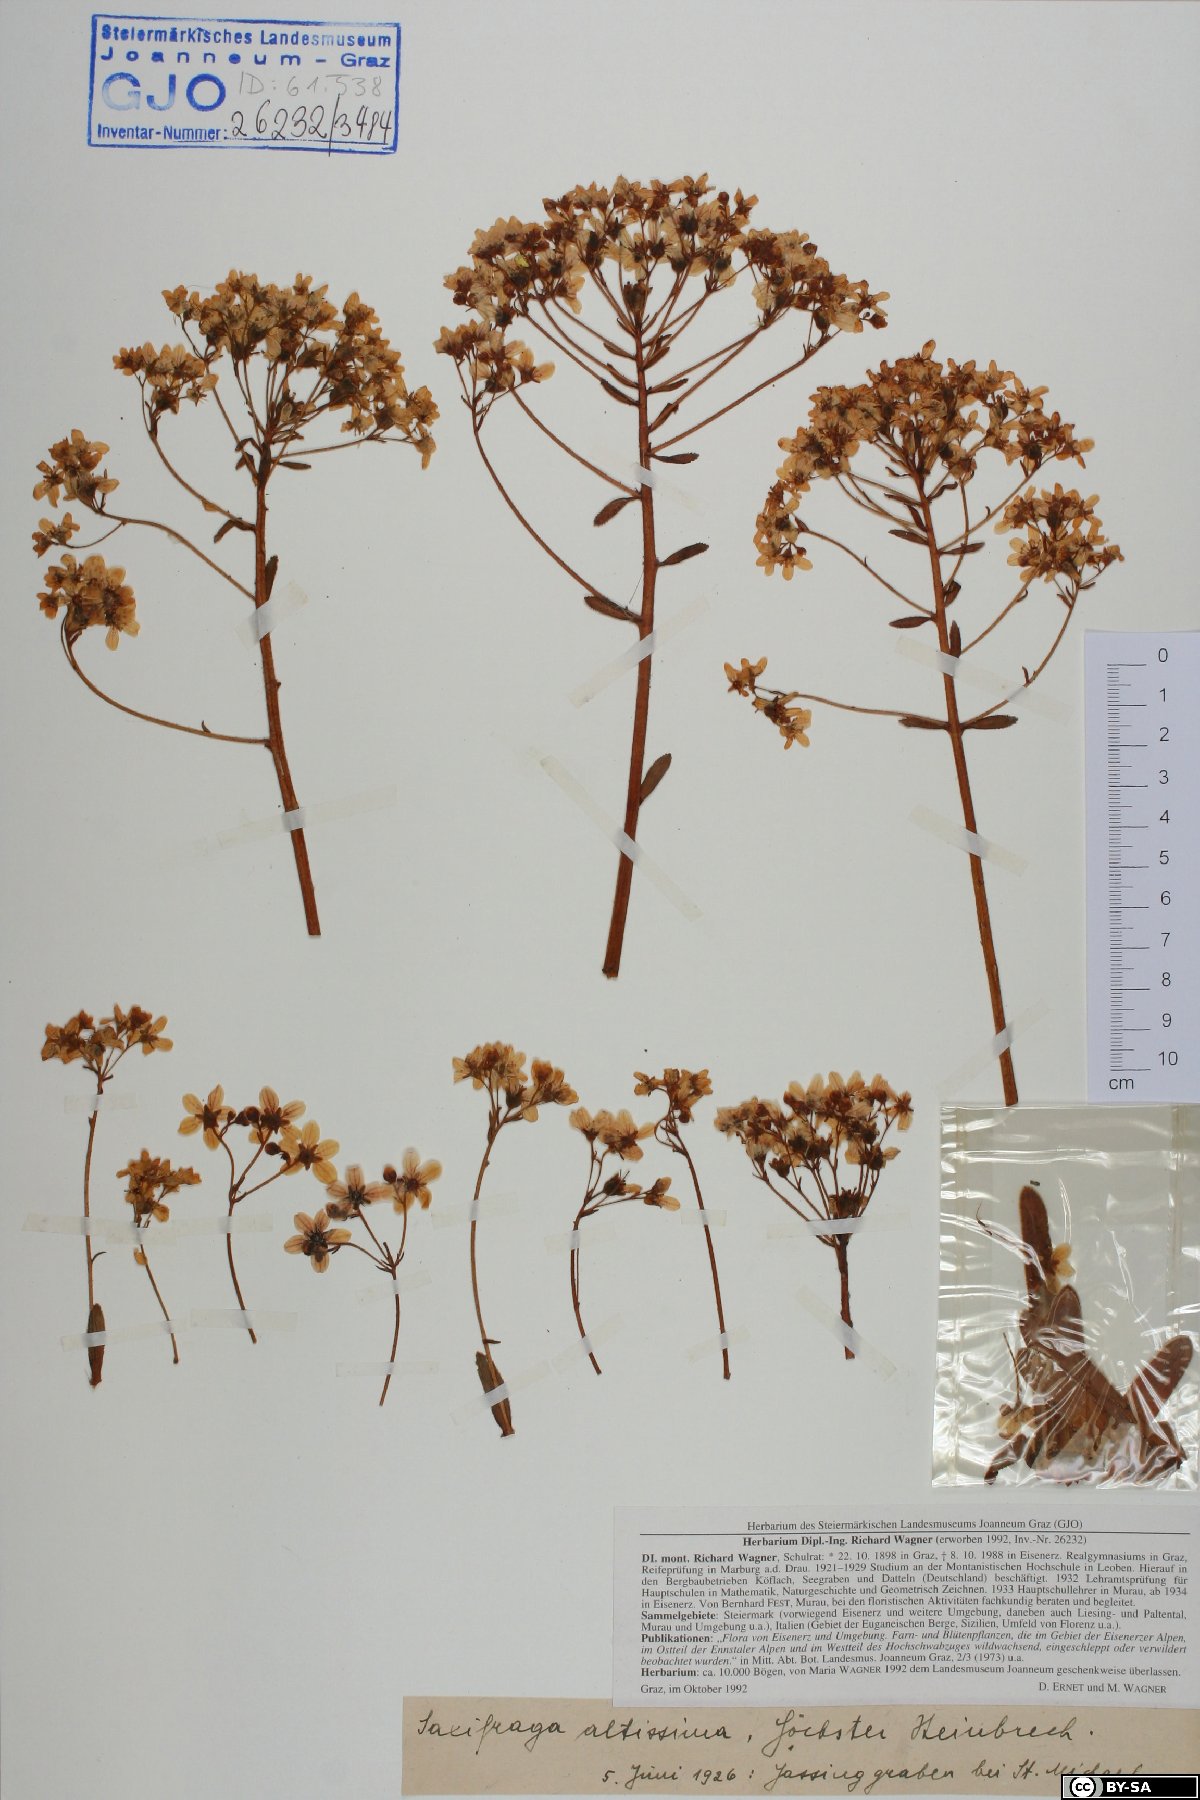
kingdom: Plantae
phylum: Tracheophyta
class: Magnoliopsida
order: Saxifragales
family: Saxifragaceae
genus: Saxifraga
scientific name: Saxifraga hostii
